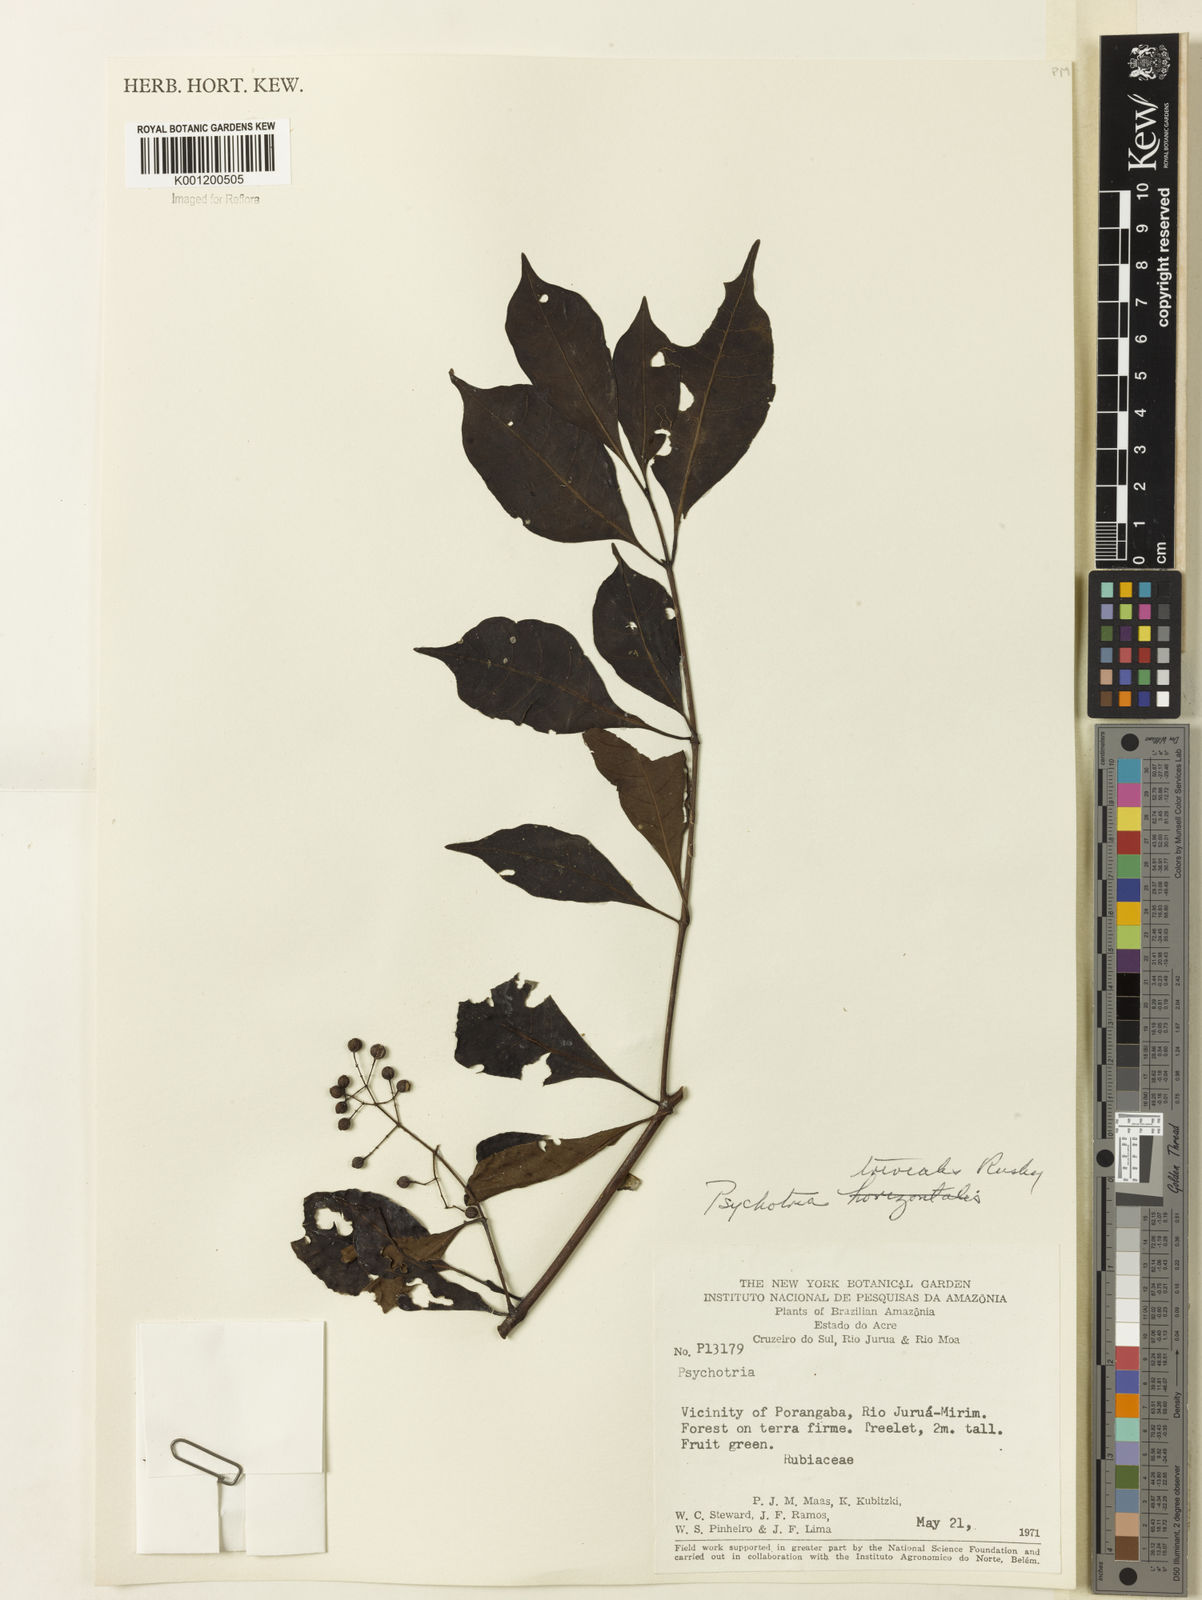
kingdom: Plantae
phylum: Tracheophyta
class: Magnoliopsida
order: Gentianales
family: Rubiaceae
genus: Psychotria
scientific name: Psychotria trivialis
